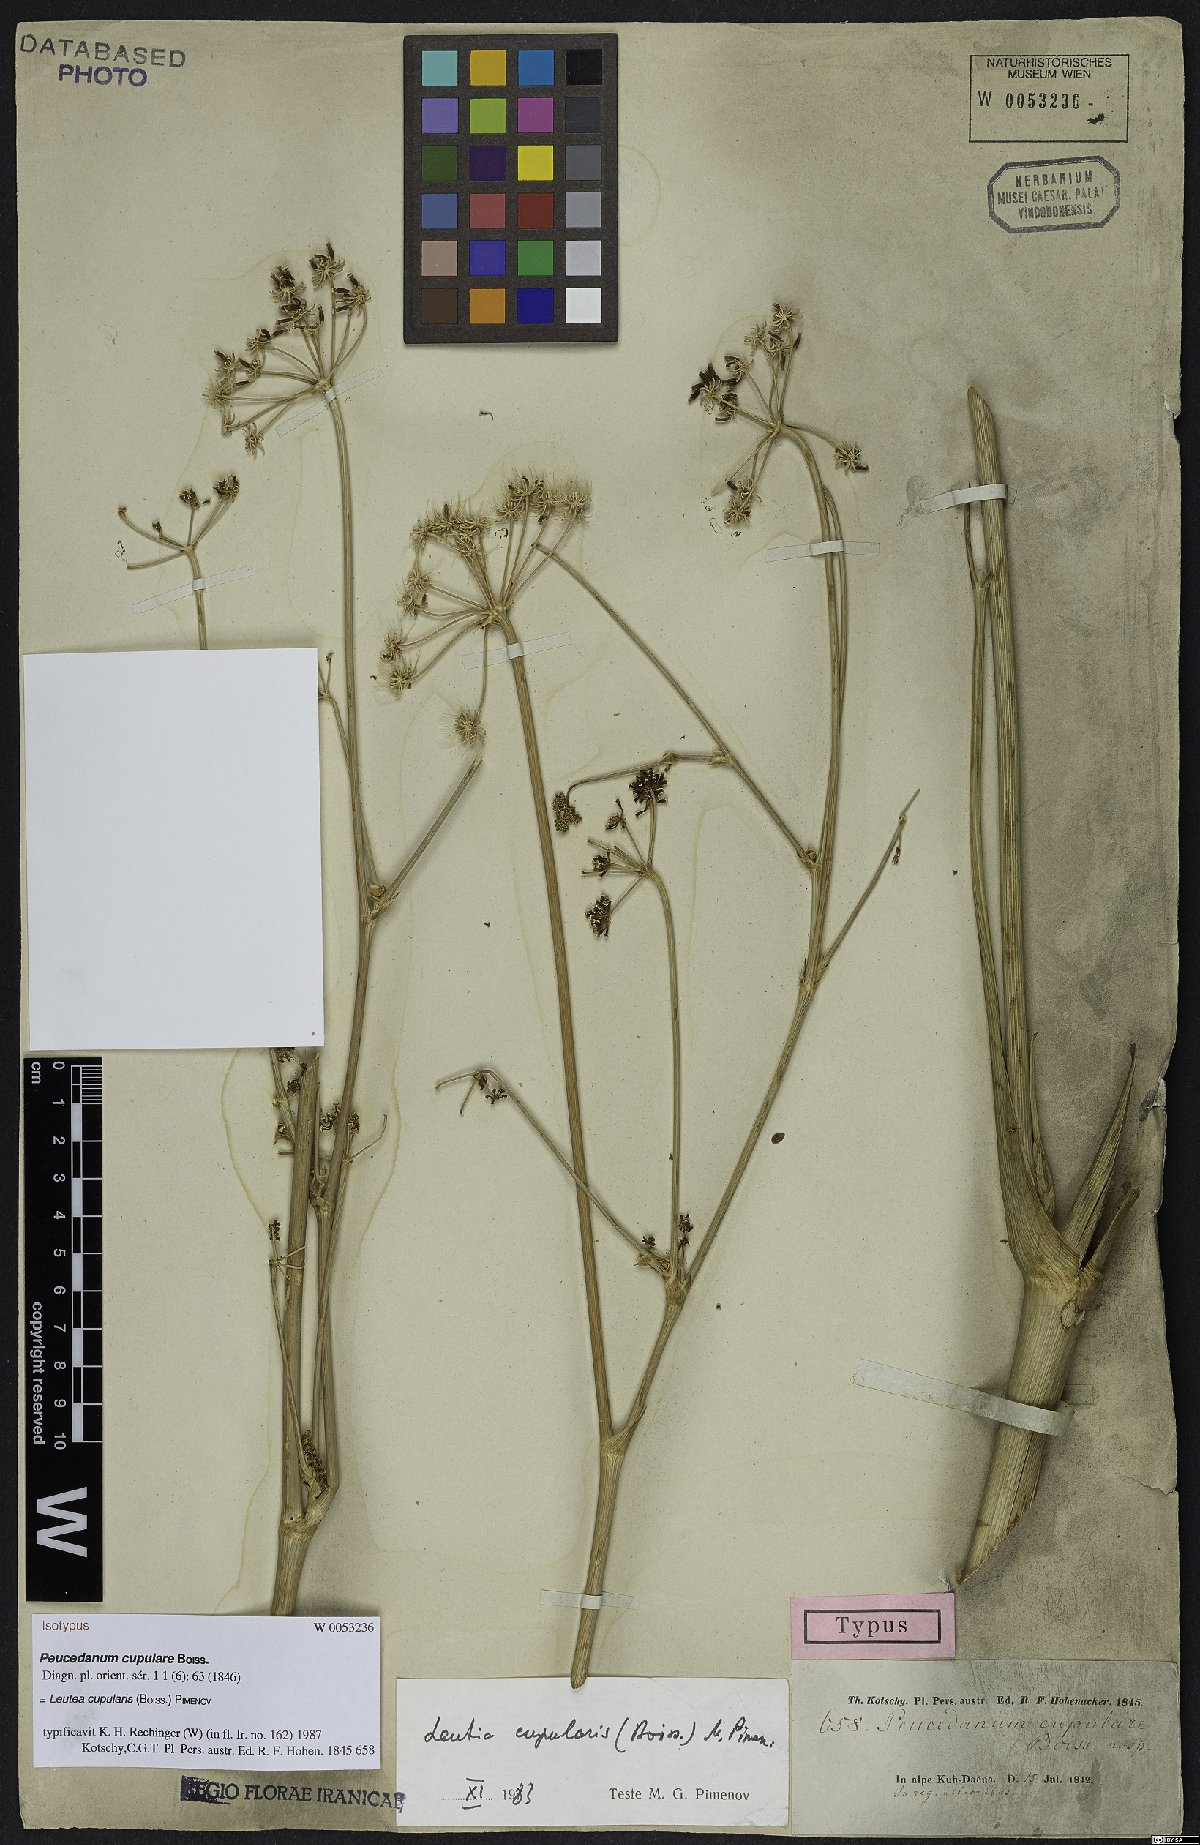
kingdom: Plantae
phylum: Tracheophyta
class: Magnoliopsida
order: Apiales
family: Apiaceae
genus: Ferula
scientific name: Ferula cupularis
